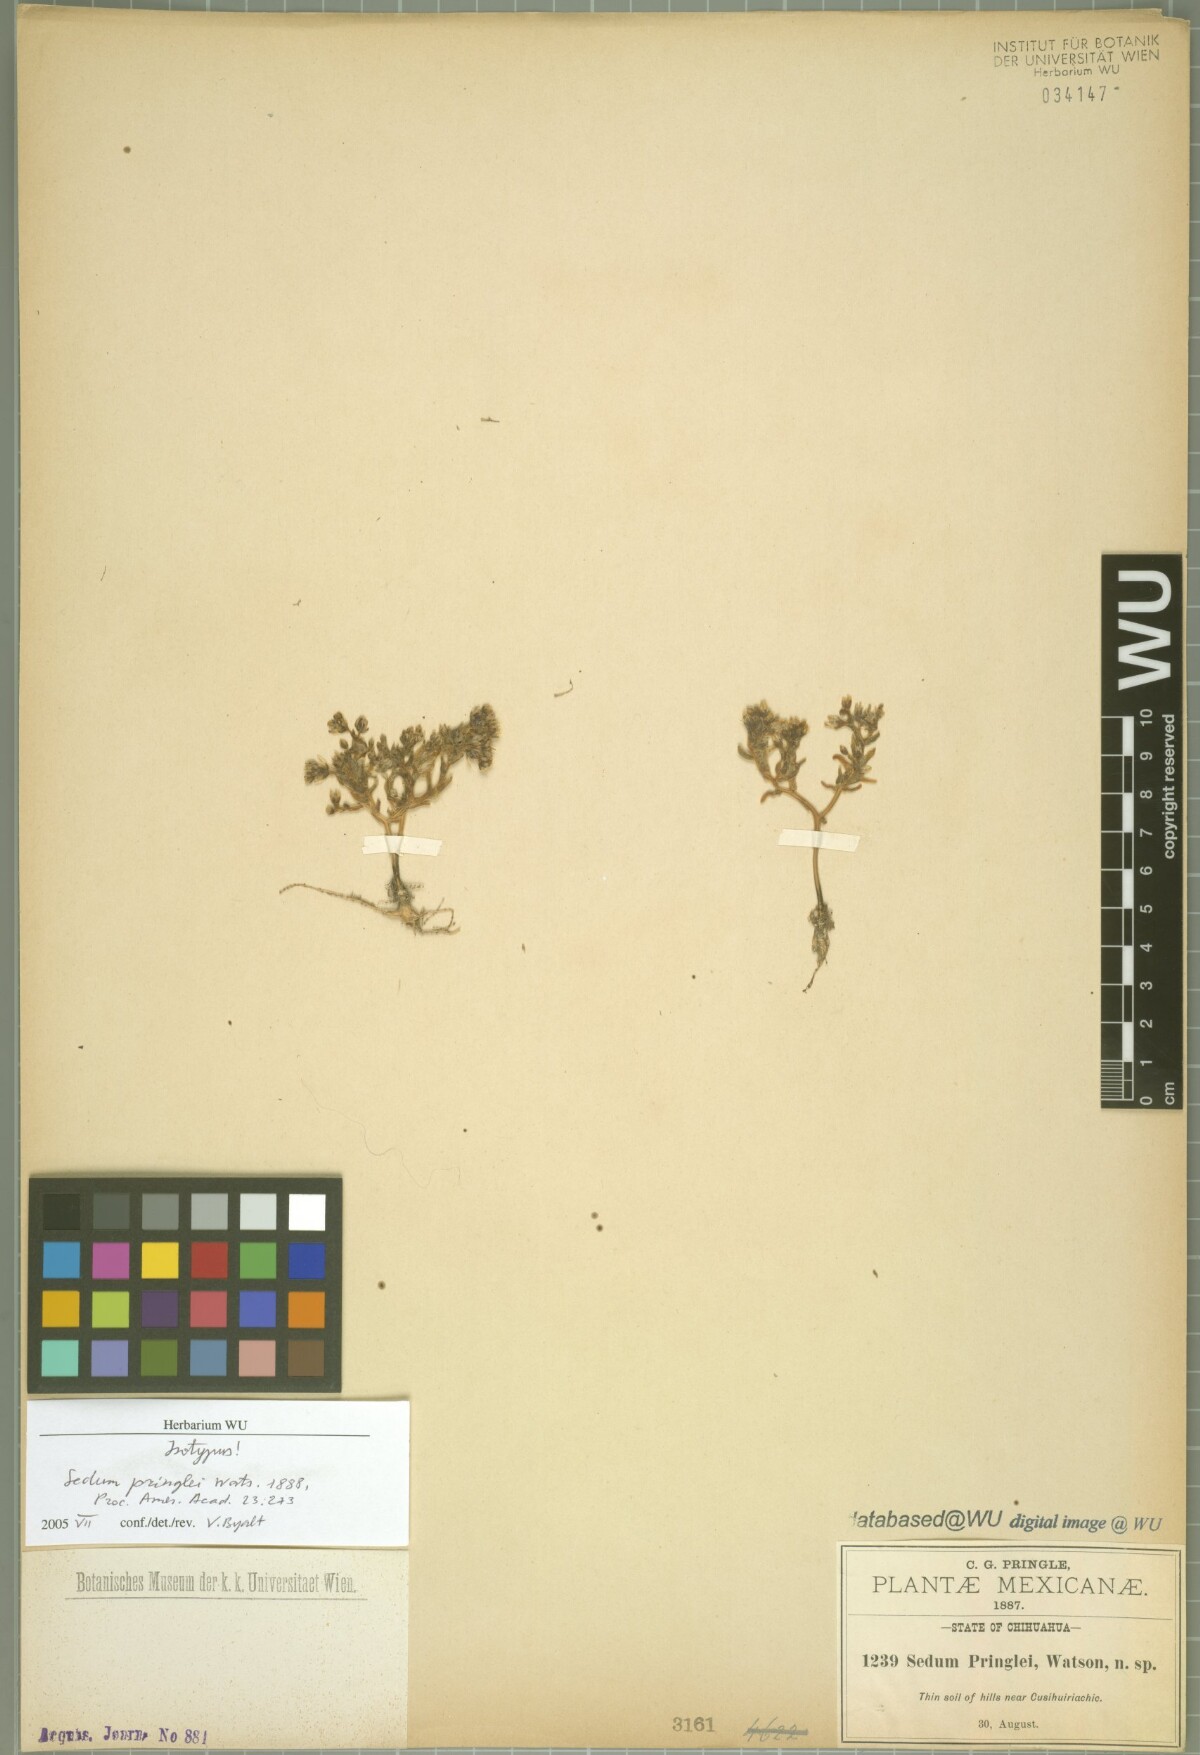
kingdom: Plantae
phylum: Tracheophyta
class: Magnoliopsida
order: Saxifragales
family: Crassulaceae
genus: Sedum
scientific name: Sedum pringlei
